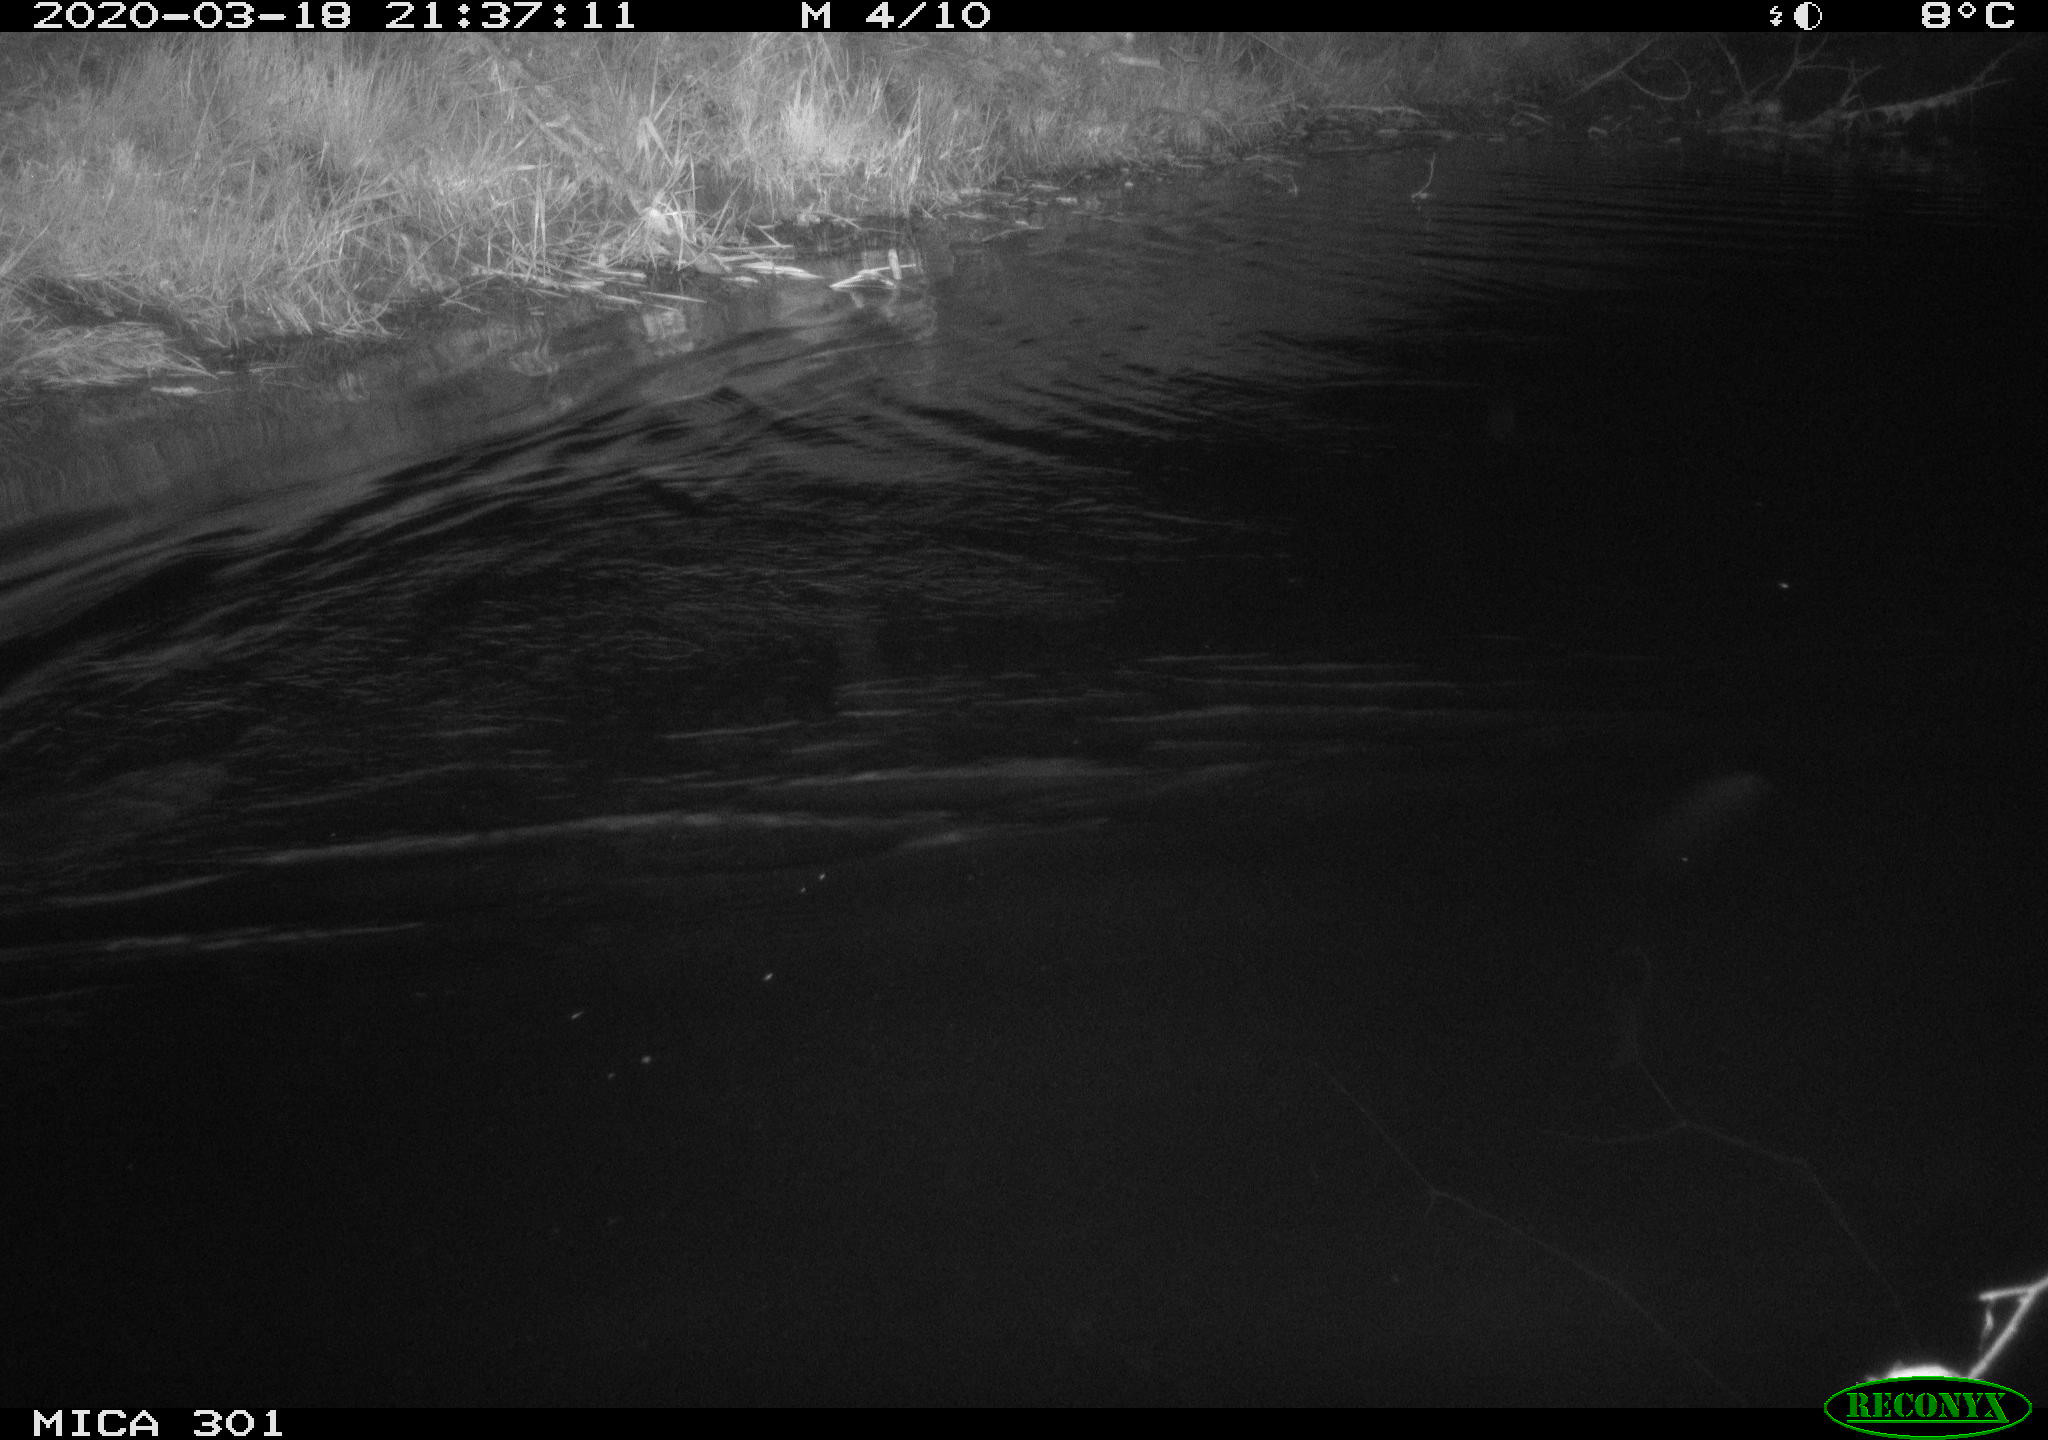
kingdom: Animalia
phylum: Chordata
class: Mammalia
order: Rodentia
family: Castoridae
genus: Castor
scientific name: Castor fiber
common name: Eurasian beaver
